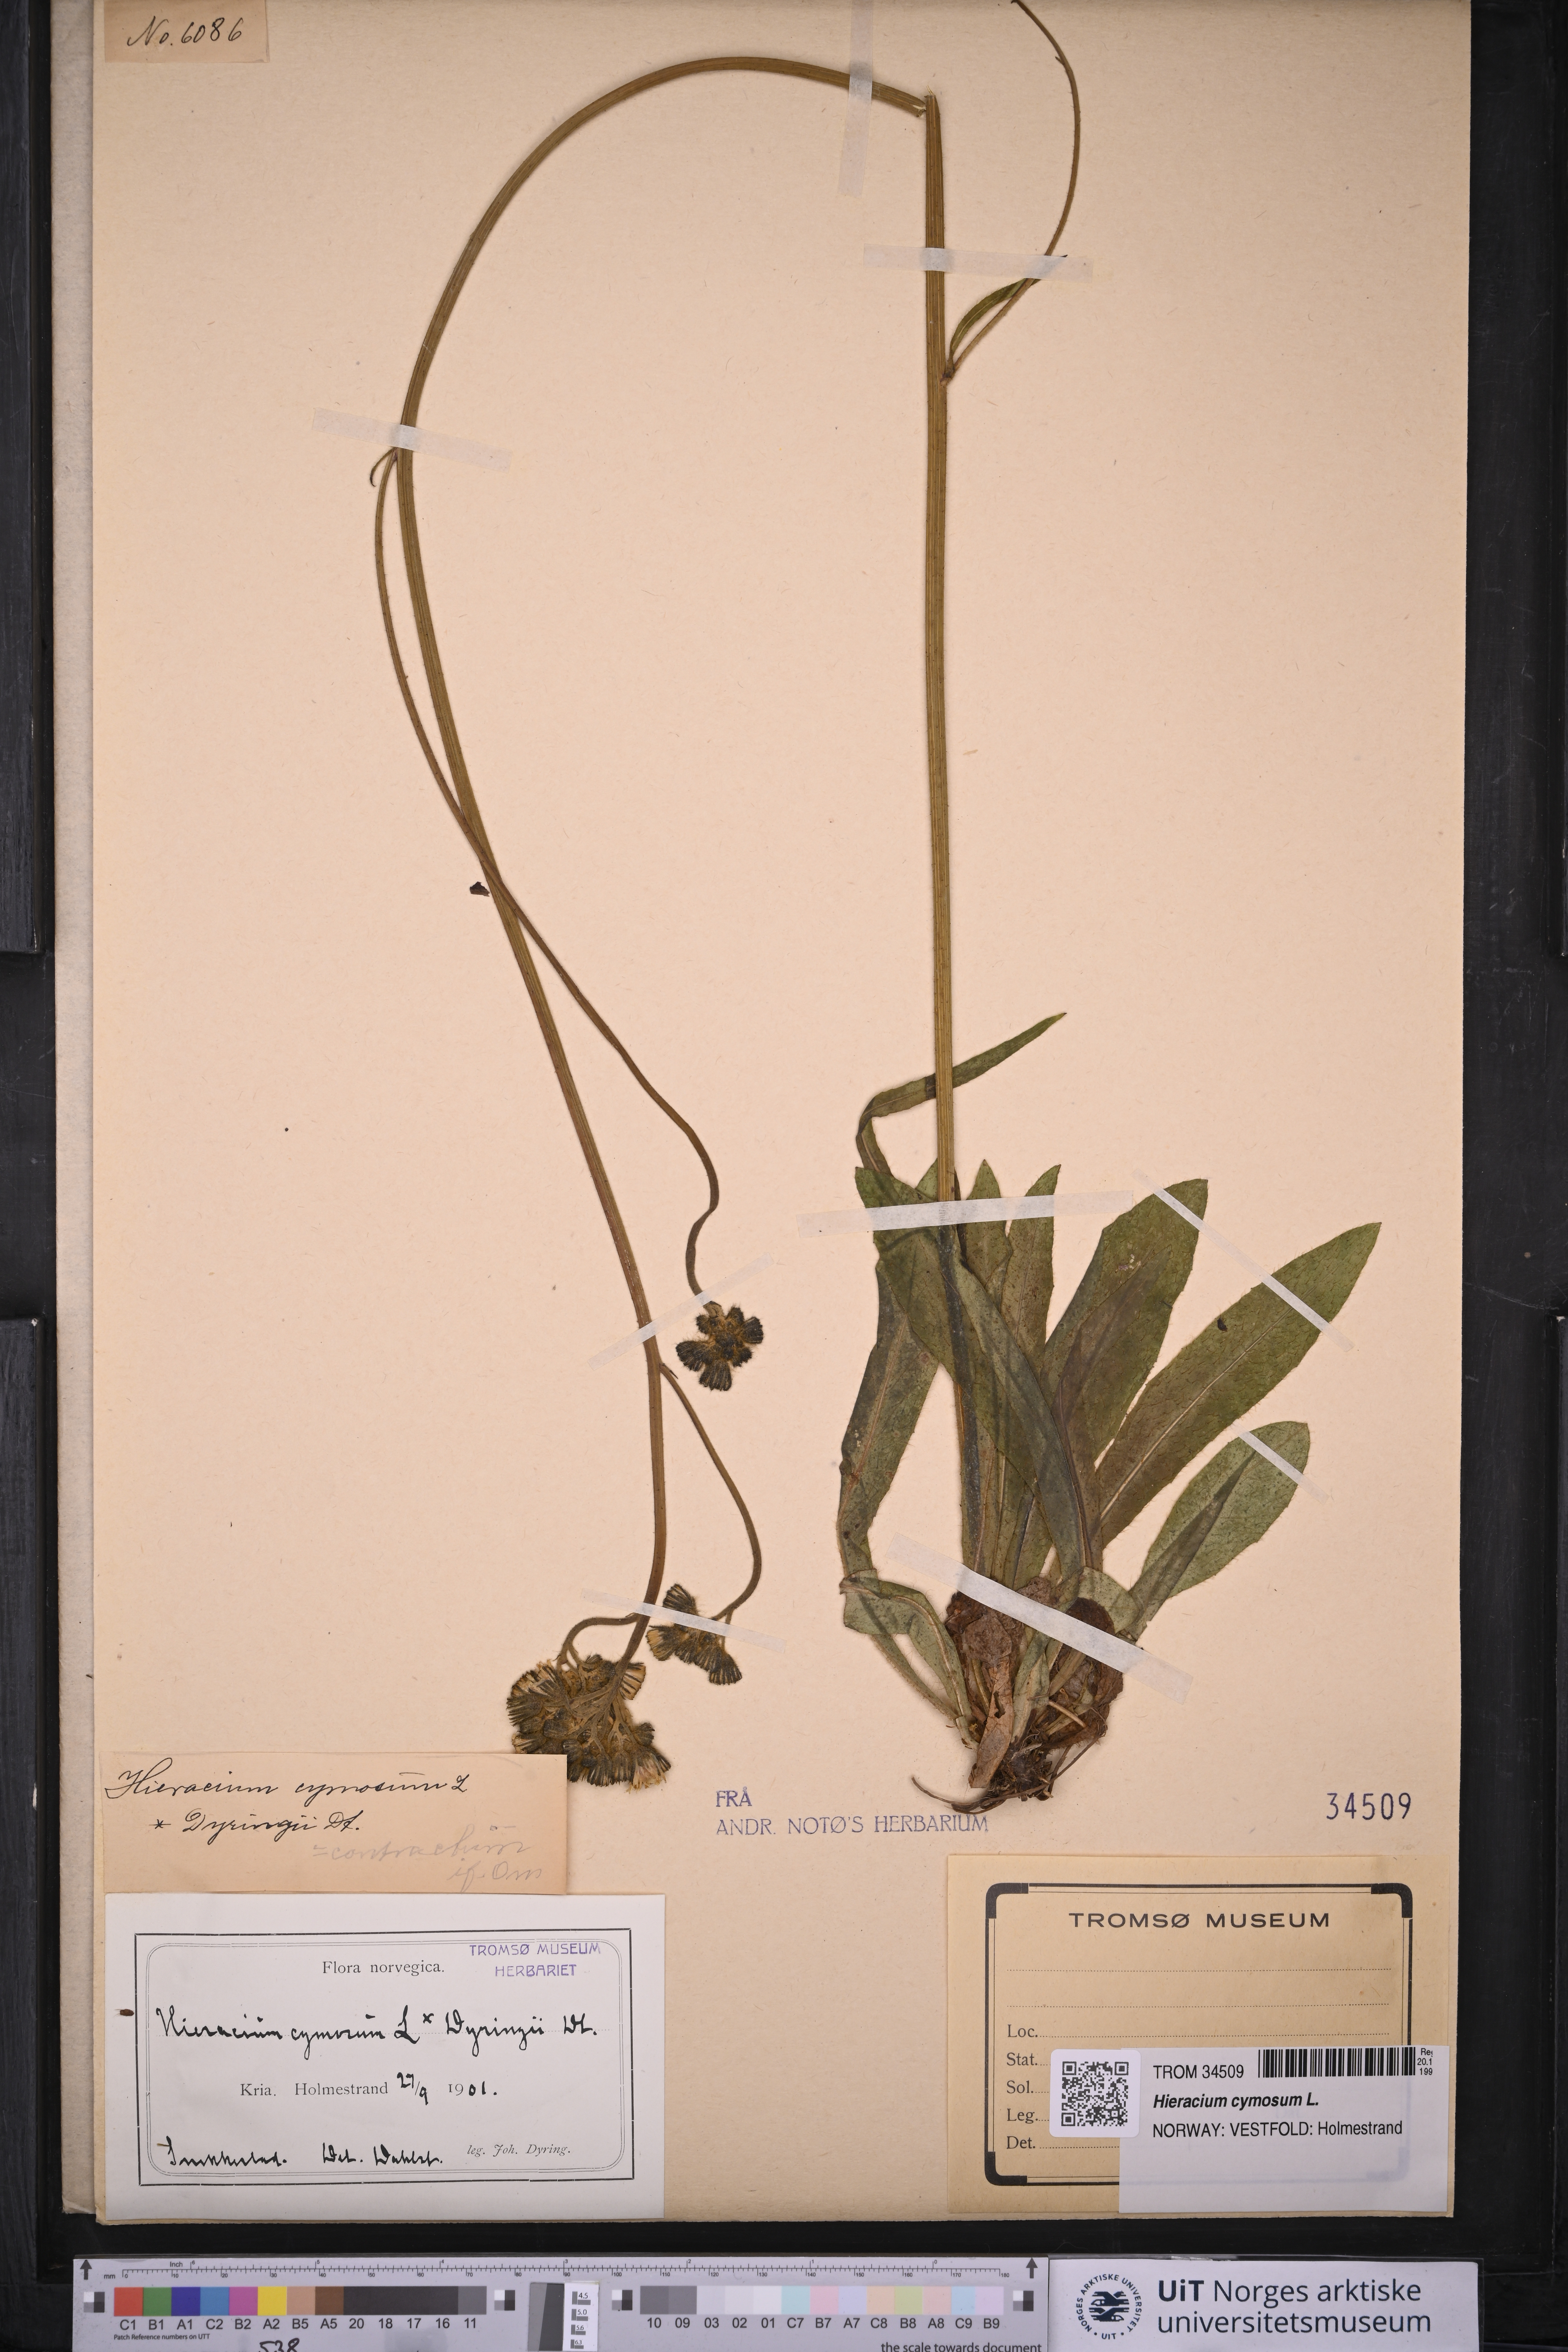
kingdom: Plantae
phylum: Tracheophyta
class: Magnoliopsida
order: Asterales
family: Asteraceae
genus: Pilosella
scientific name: Pilosella cymosa
